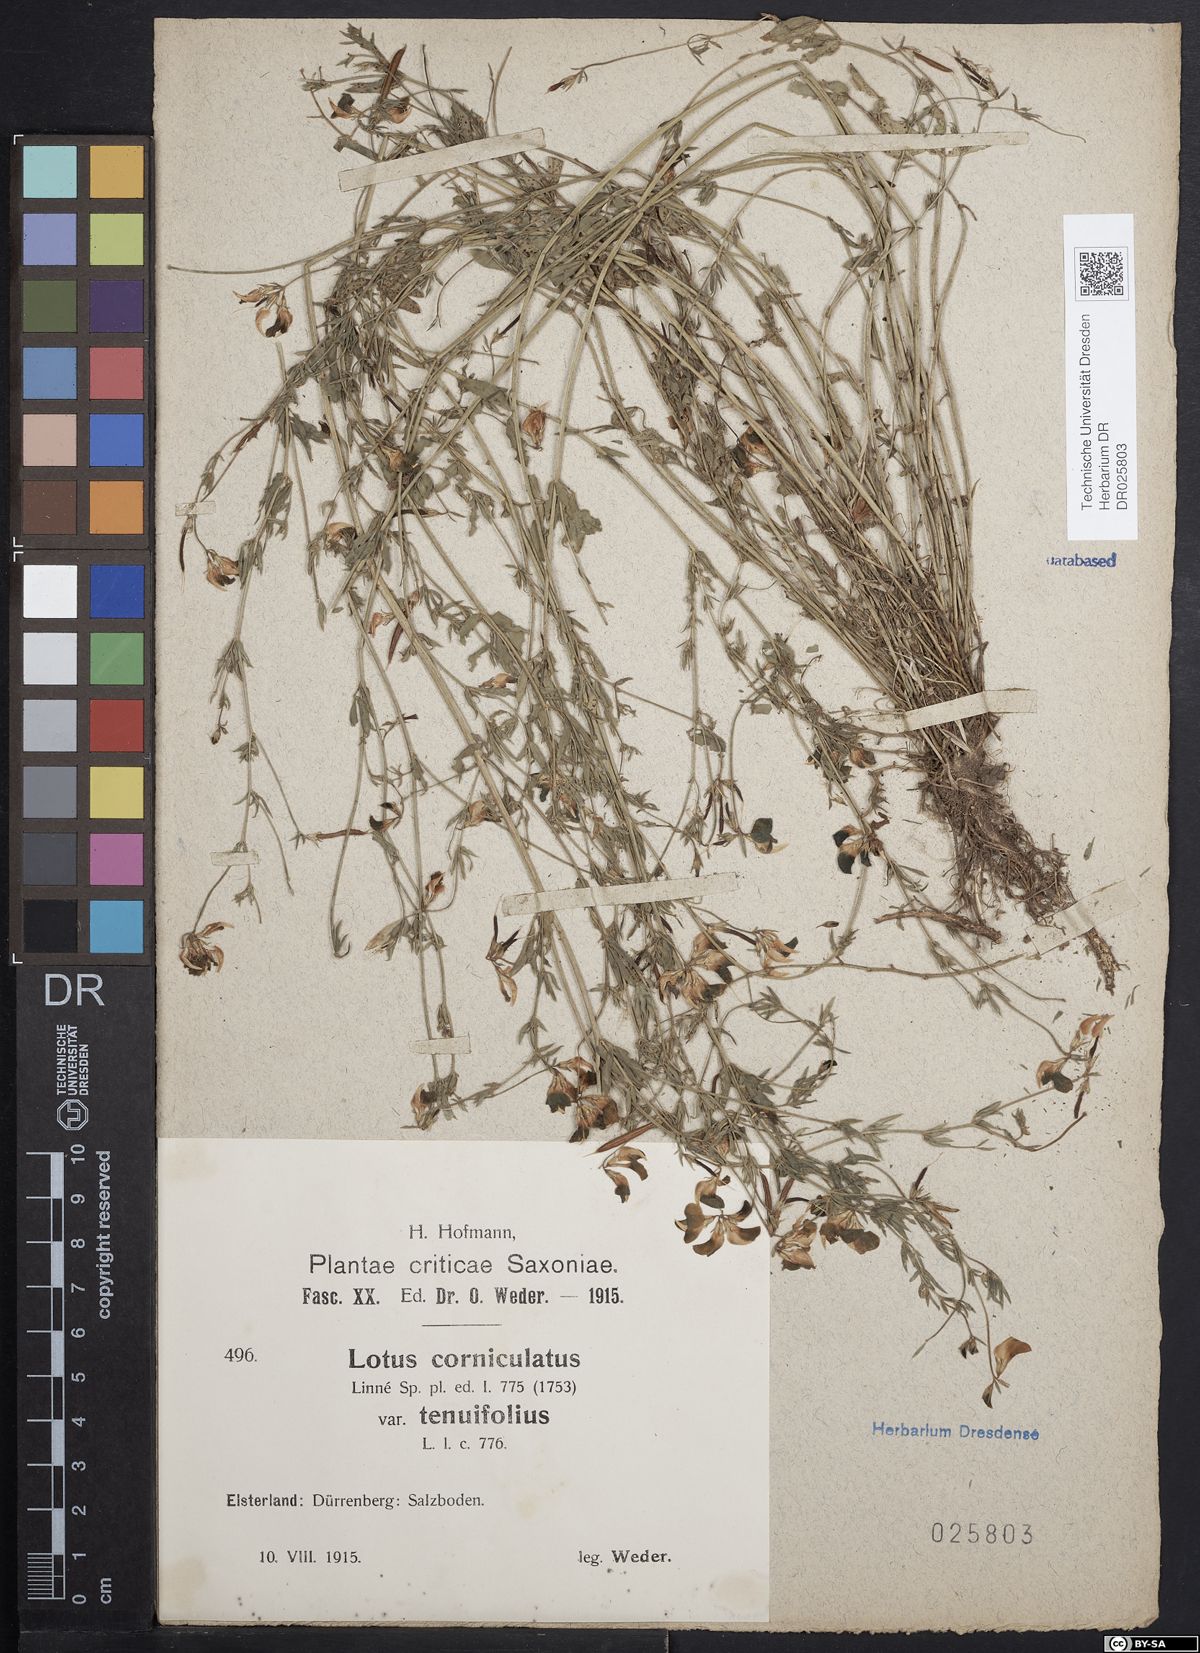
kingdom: Plantae
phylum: Tracheophyta
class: Magnoliopsida
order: Fabales
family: Fabaceae
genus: Lotus
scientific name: Lotus tenuis
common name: Narrow-leaved bird's-foot-trefoil
